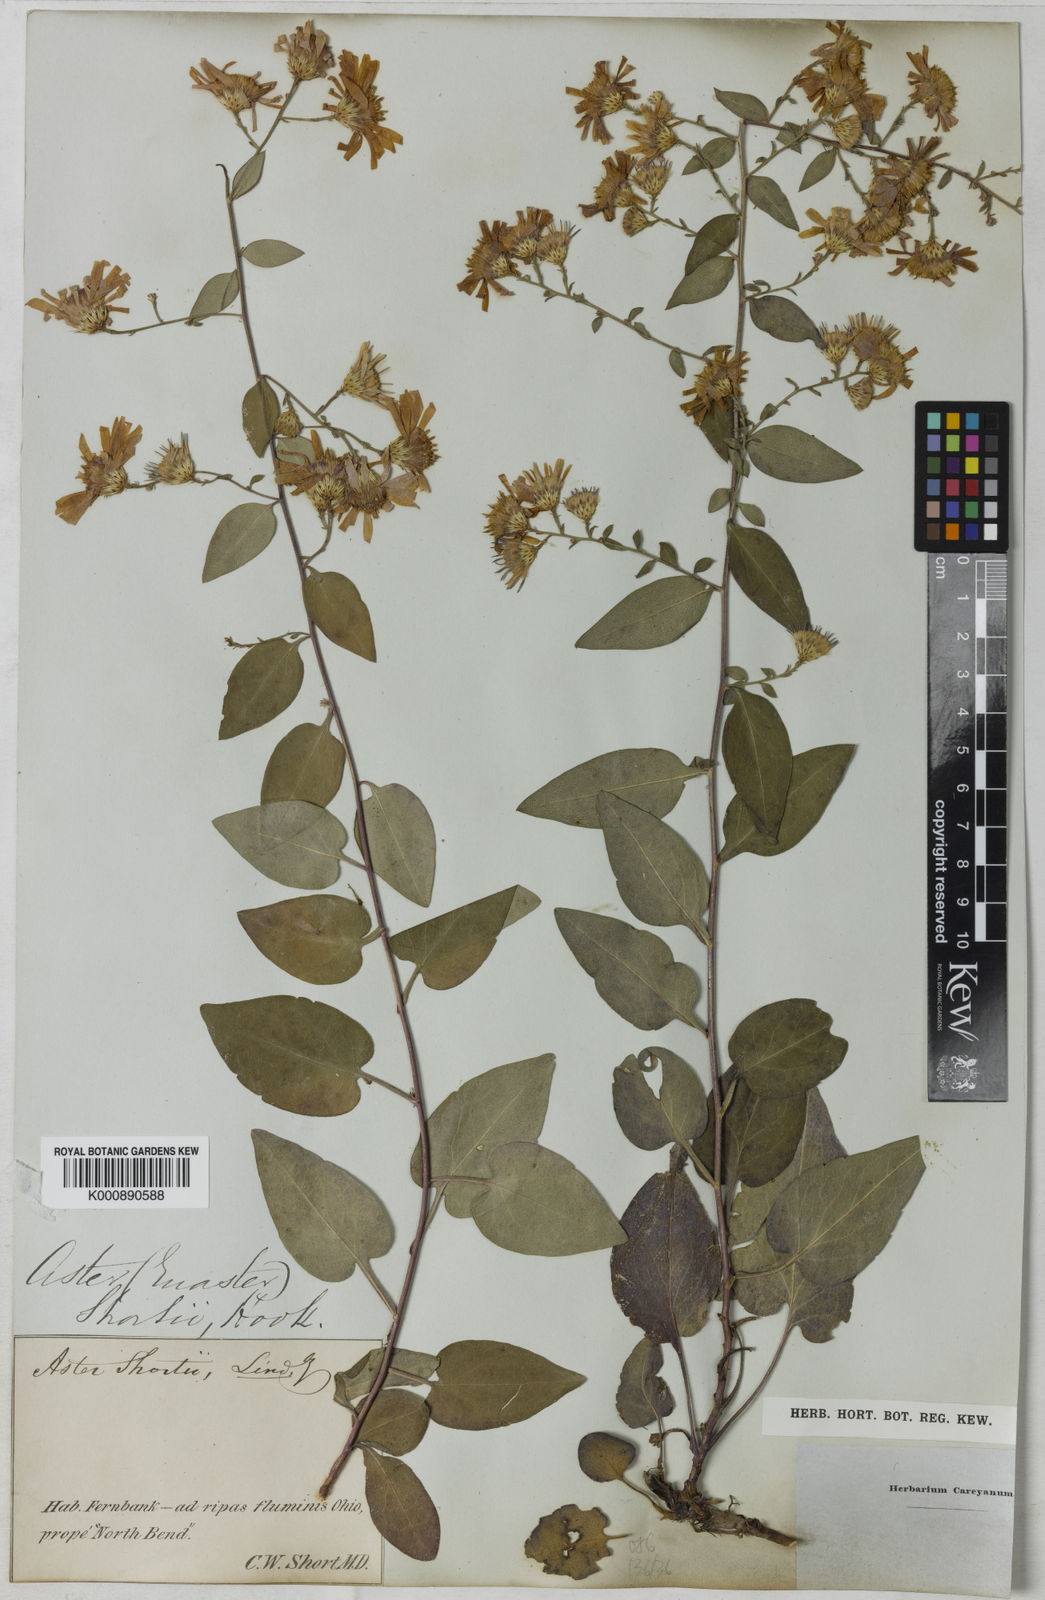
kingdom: Plantae
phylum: Tracheophyta
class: Magnoliopsida
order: Asterales
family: Asteraceae
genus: Aster
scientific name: Aster shortii
